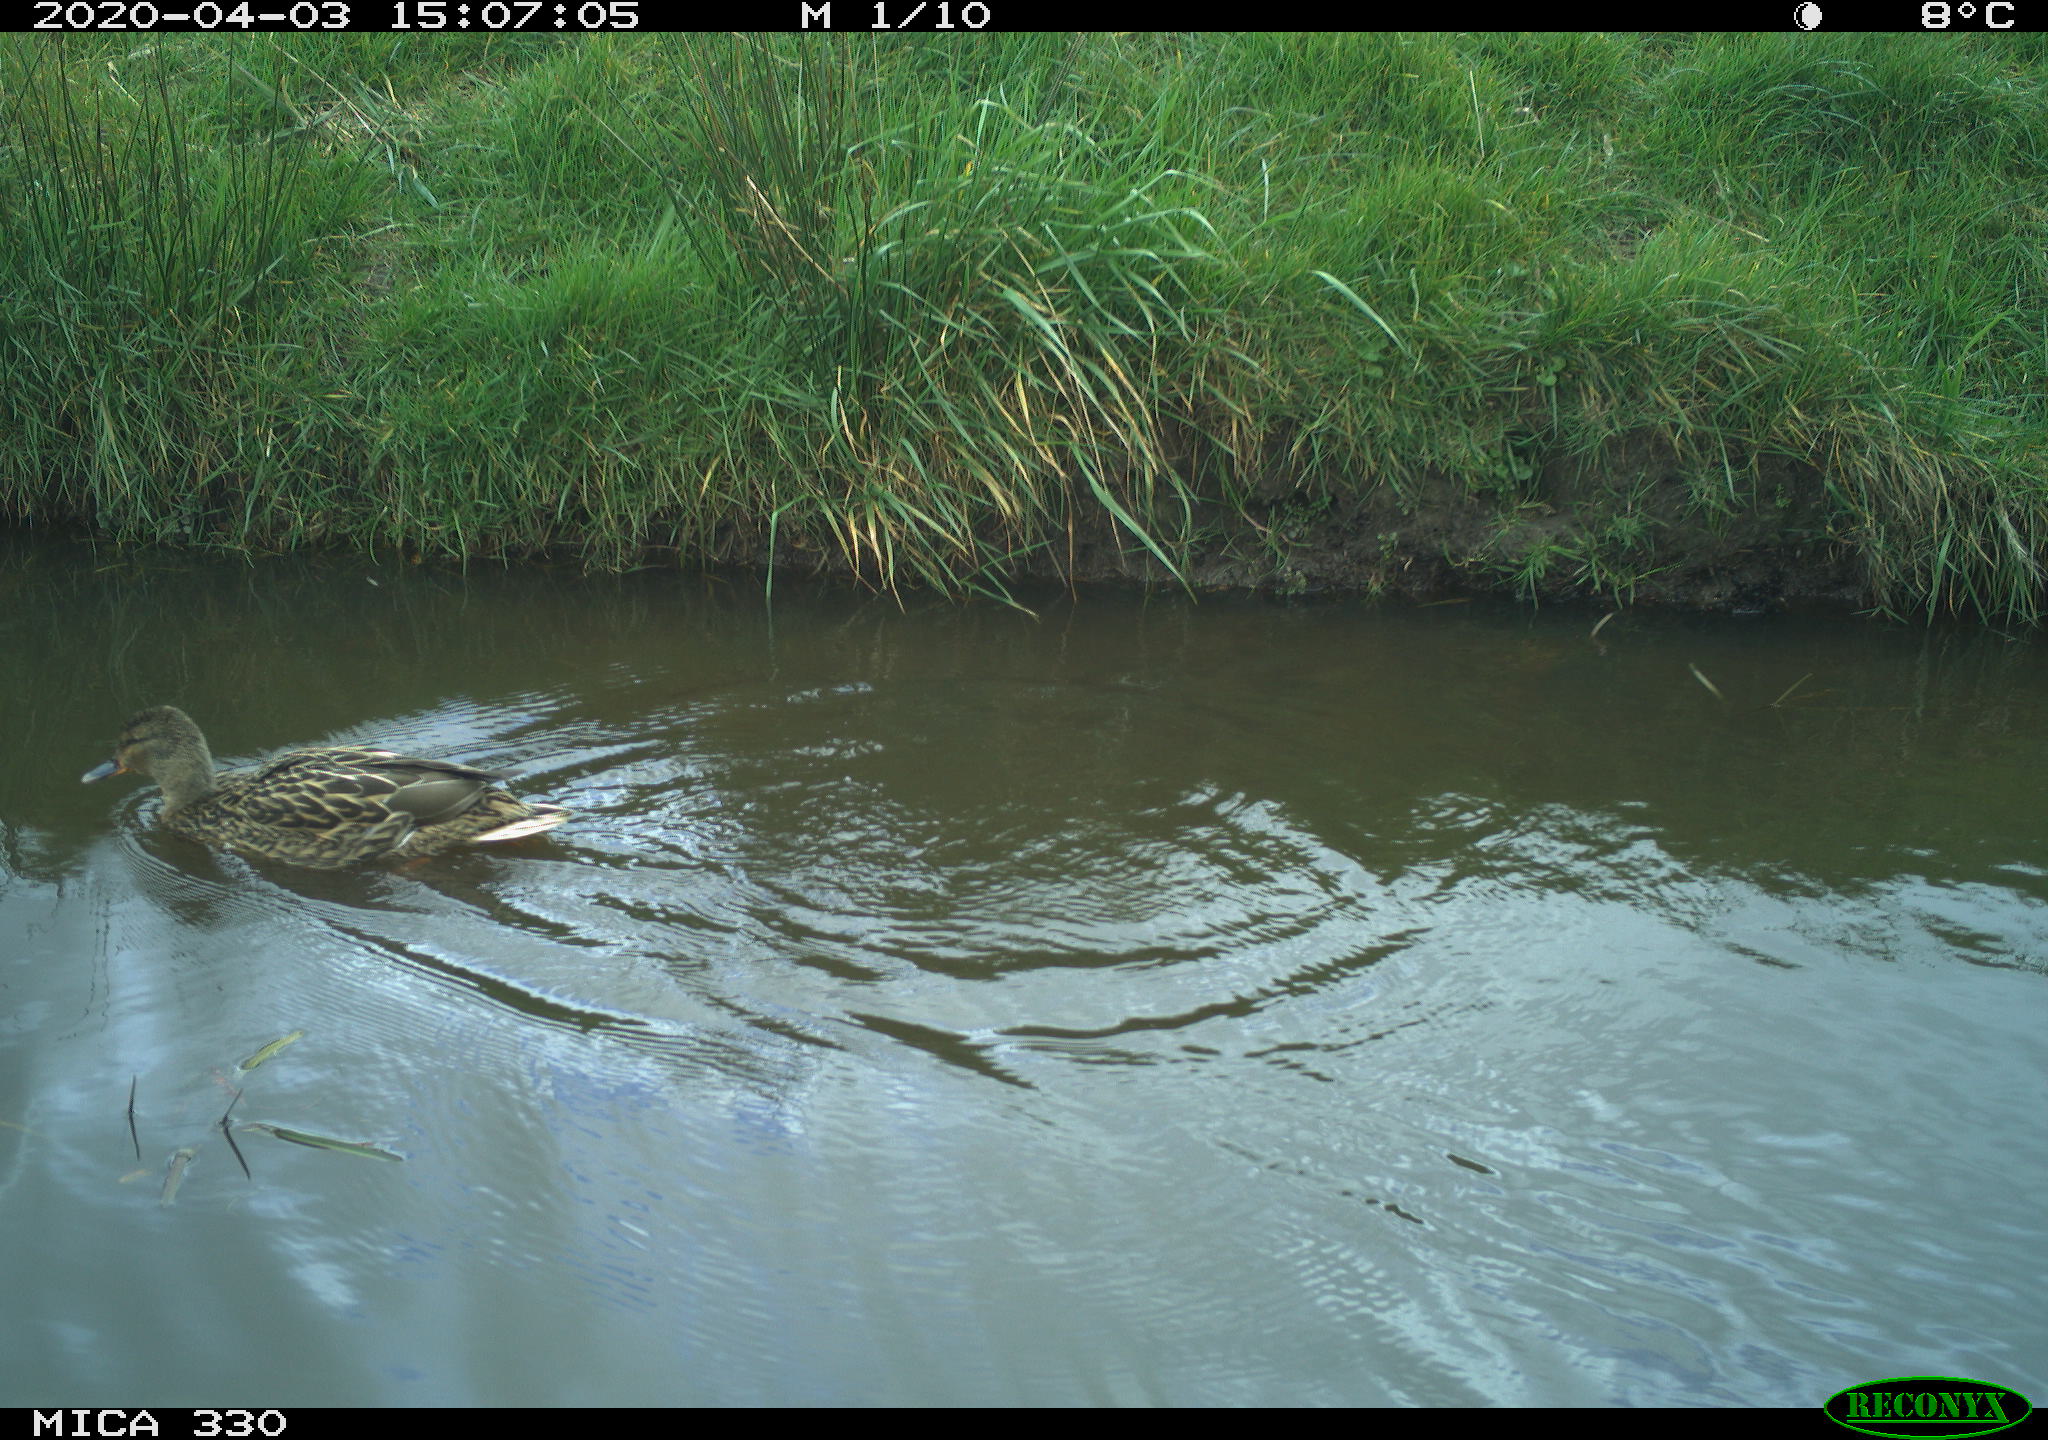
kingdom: Animalia
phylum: Chordata
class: Aves
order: Anseriformes
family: Anatidae
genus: Mareca
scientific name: Mareca strepera
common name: Gadwall
